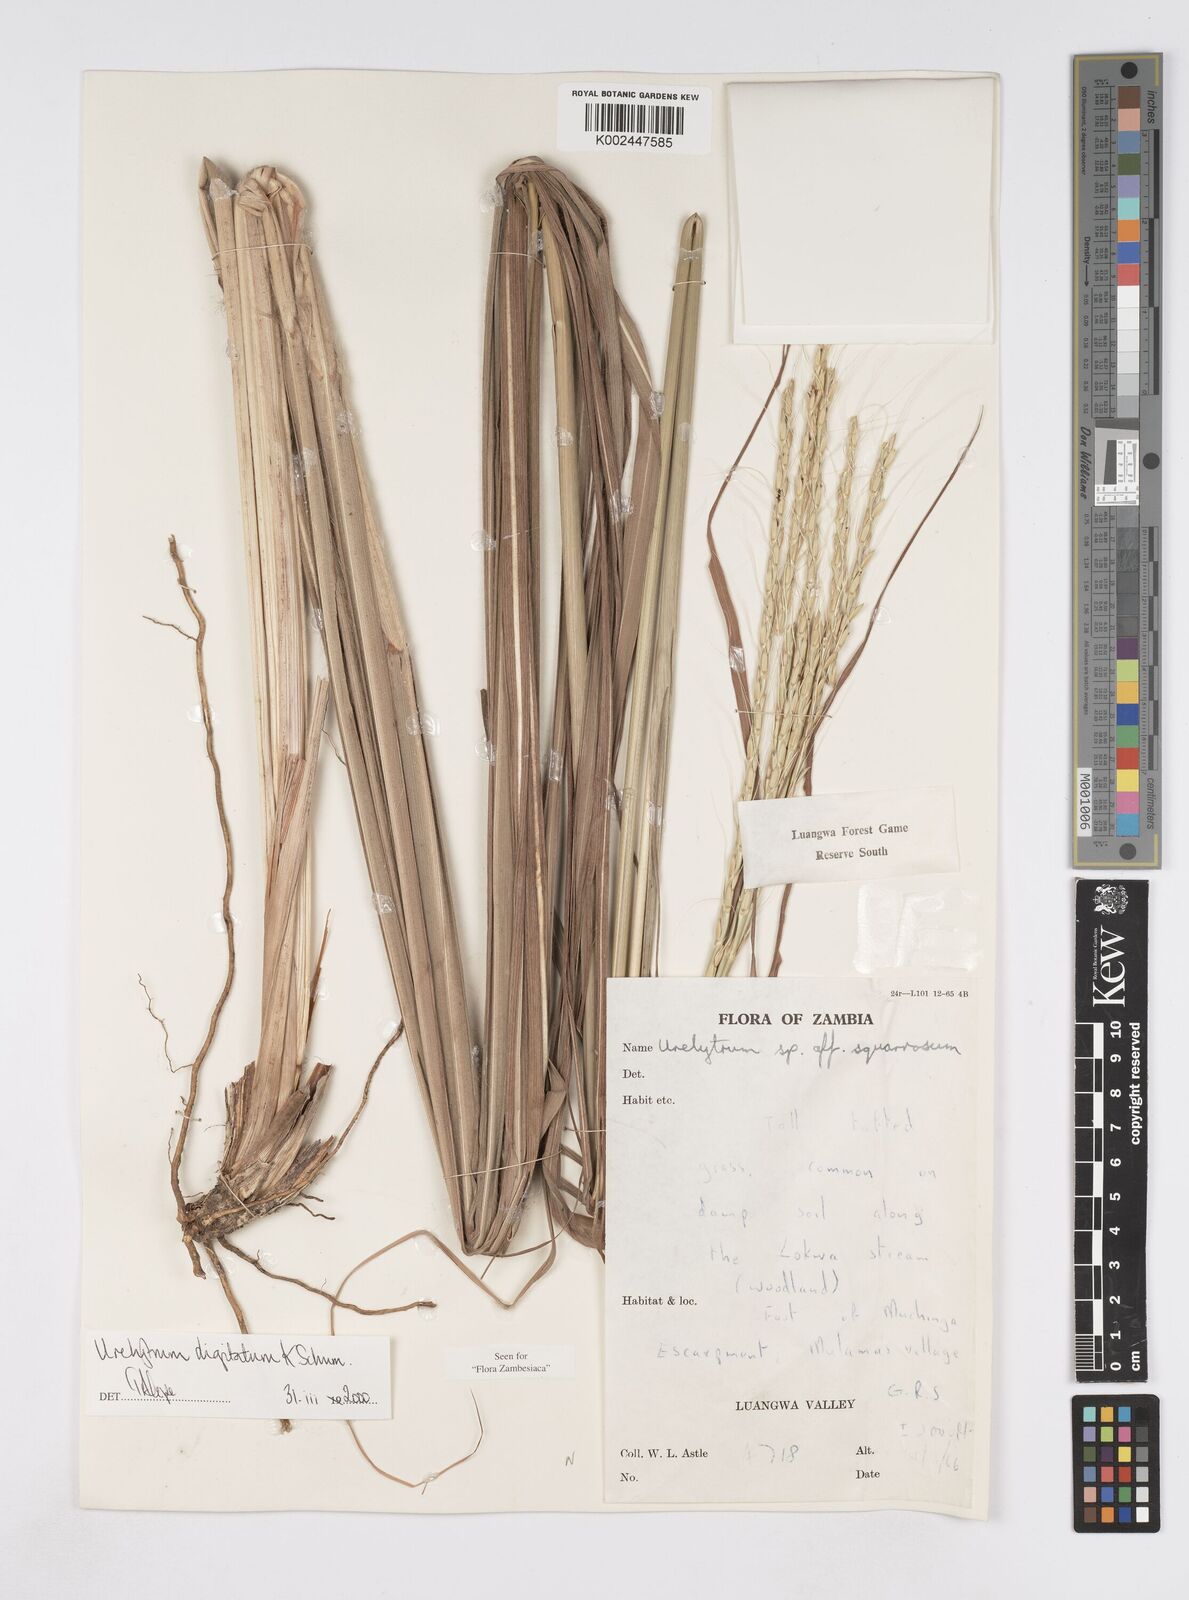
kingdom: Plantae
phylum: Tracheophyta
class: Liliopsida
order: Poales
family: Poaceae
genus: Urelytrum
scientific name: Urelytrum digitatum
